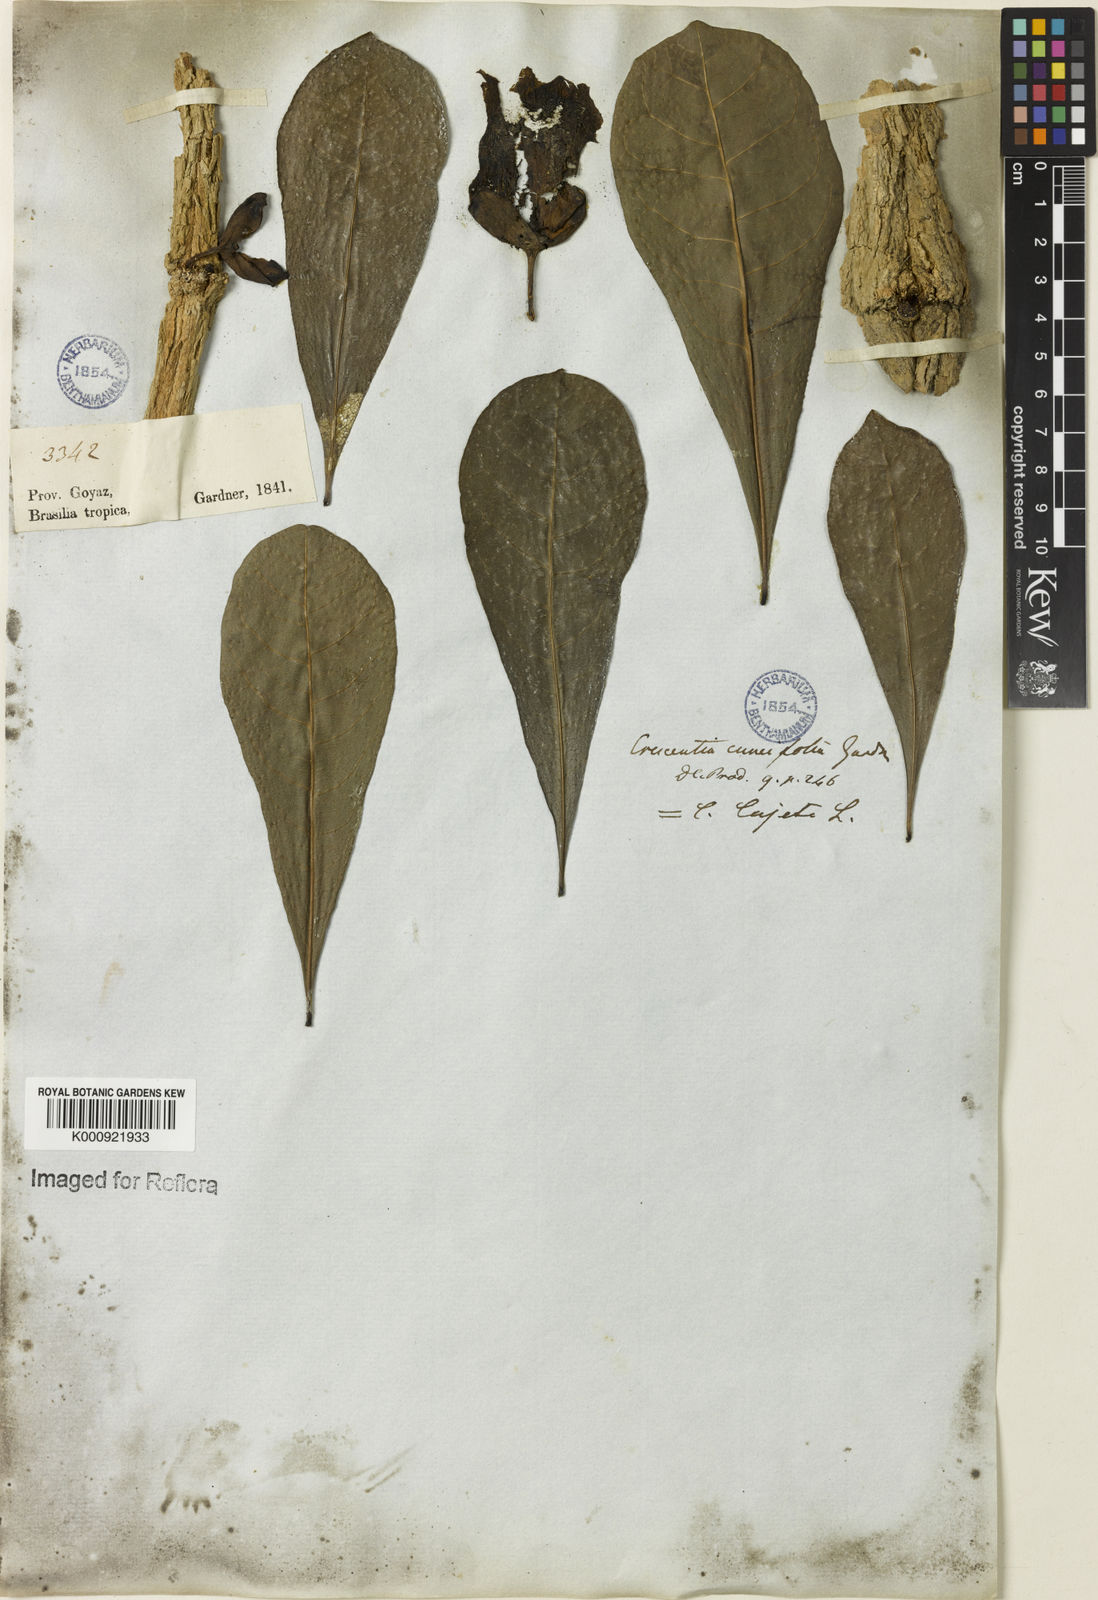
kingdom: Plantae
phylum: Tracheophyta
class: Magnoliopsida
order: Lamiales
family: Bignoniaceae
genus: Crescentia
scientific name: Crescentia cujete
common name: Calabash
